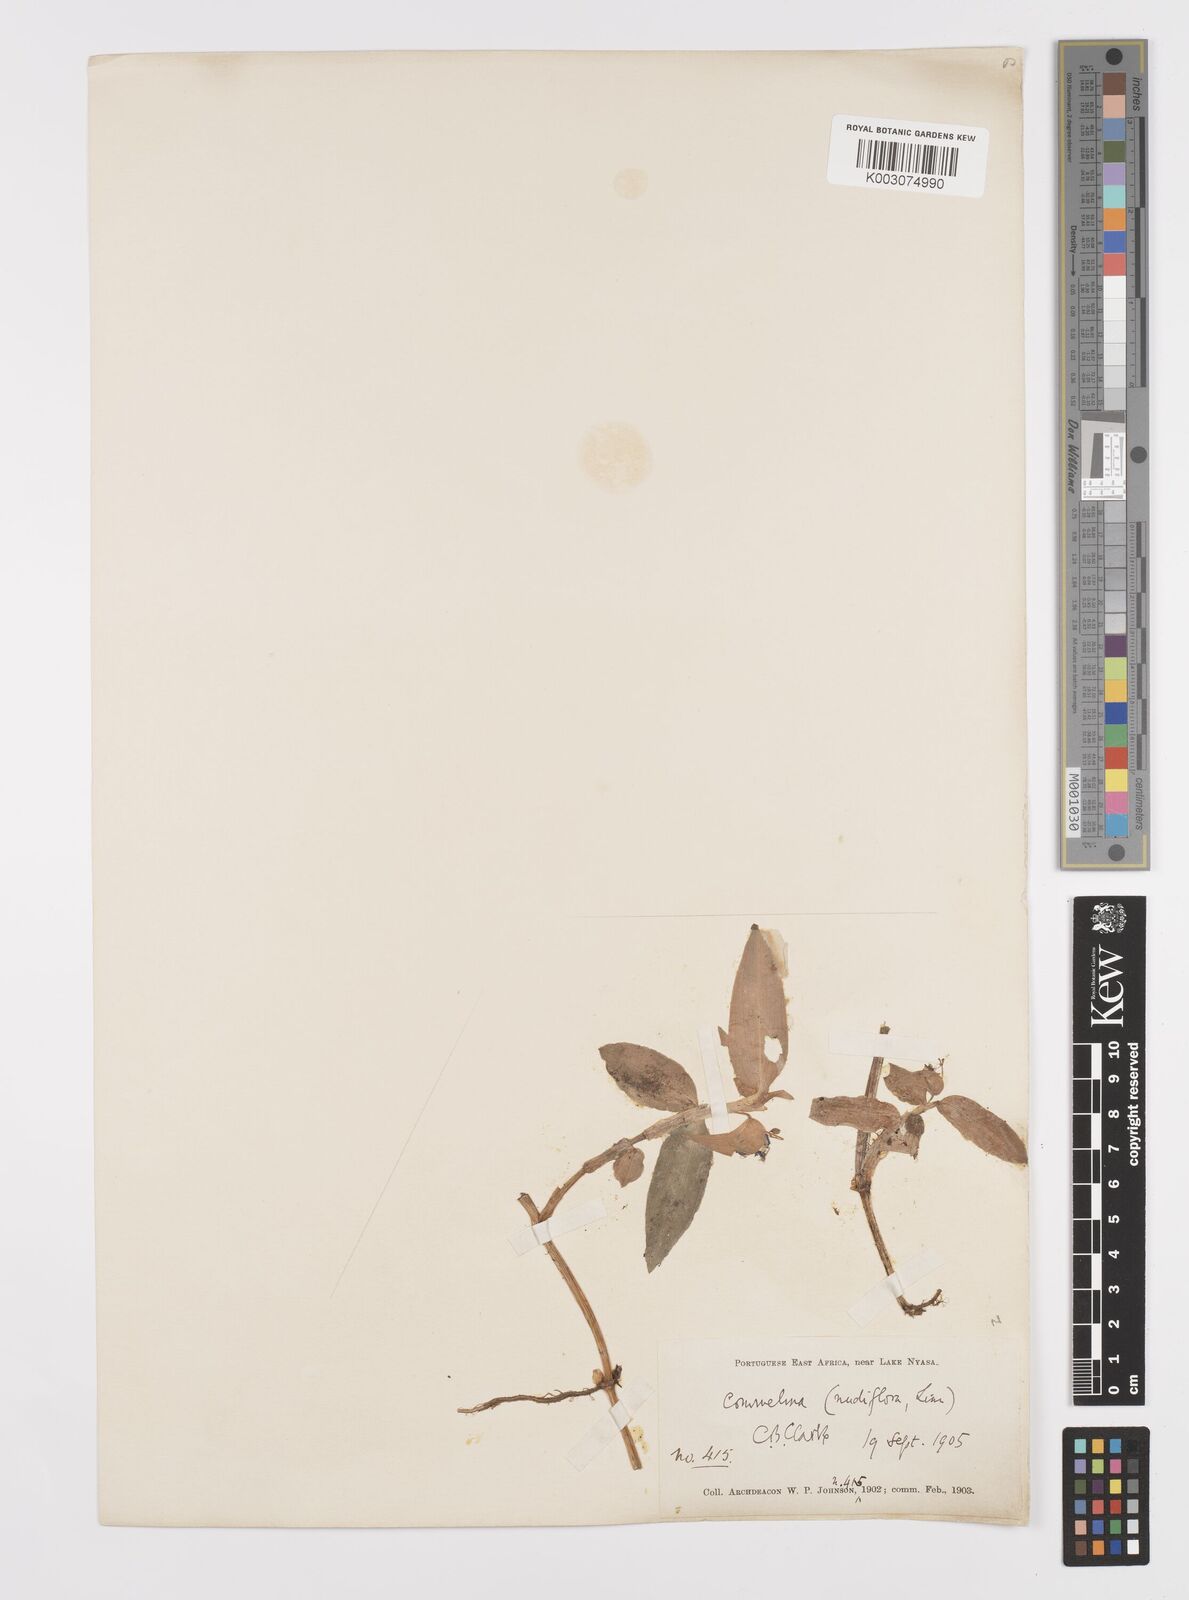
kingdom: Plantae
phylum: Tracheophyta
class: Liliopsida
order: Commelinales
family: Commelinaceae
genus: Commelina
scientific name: Commelina diffusa
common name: Climbing dayflower
